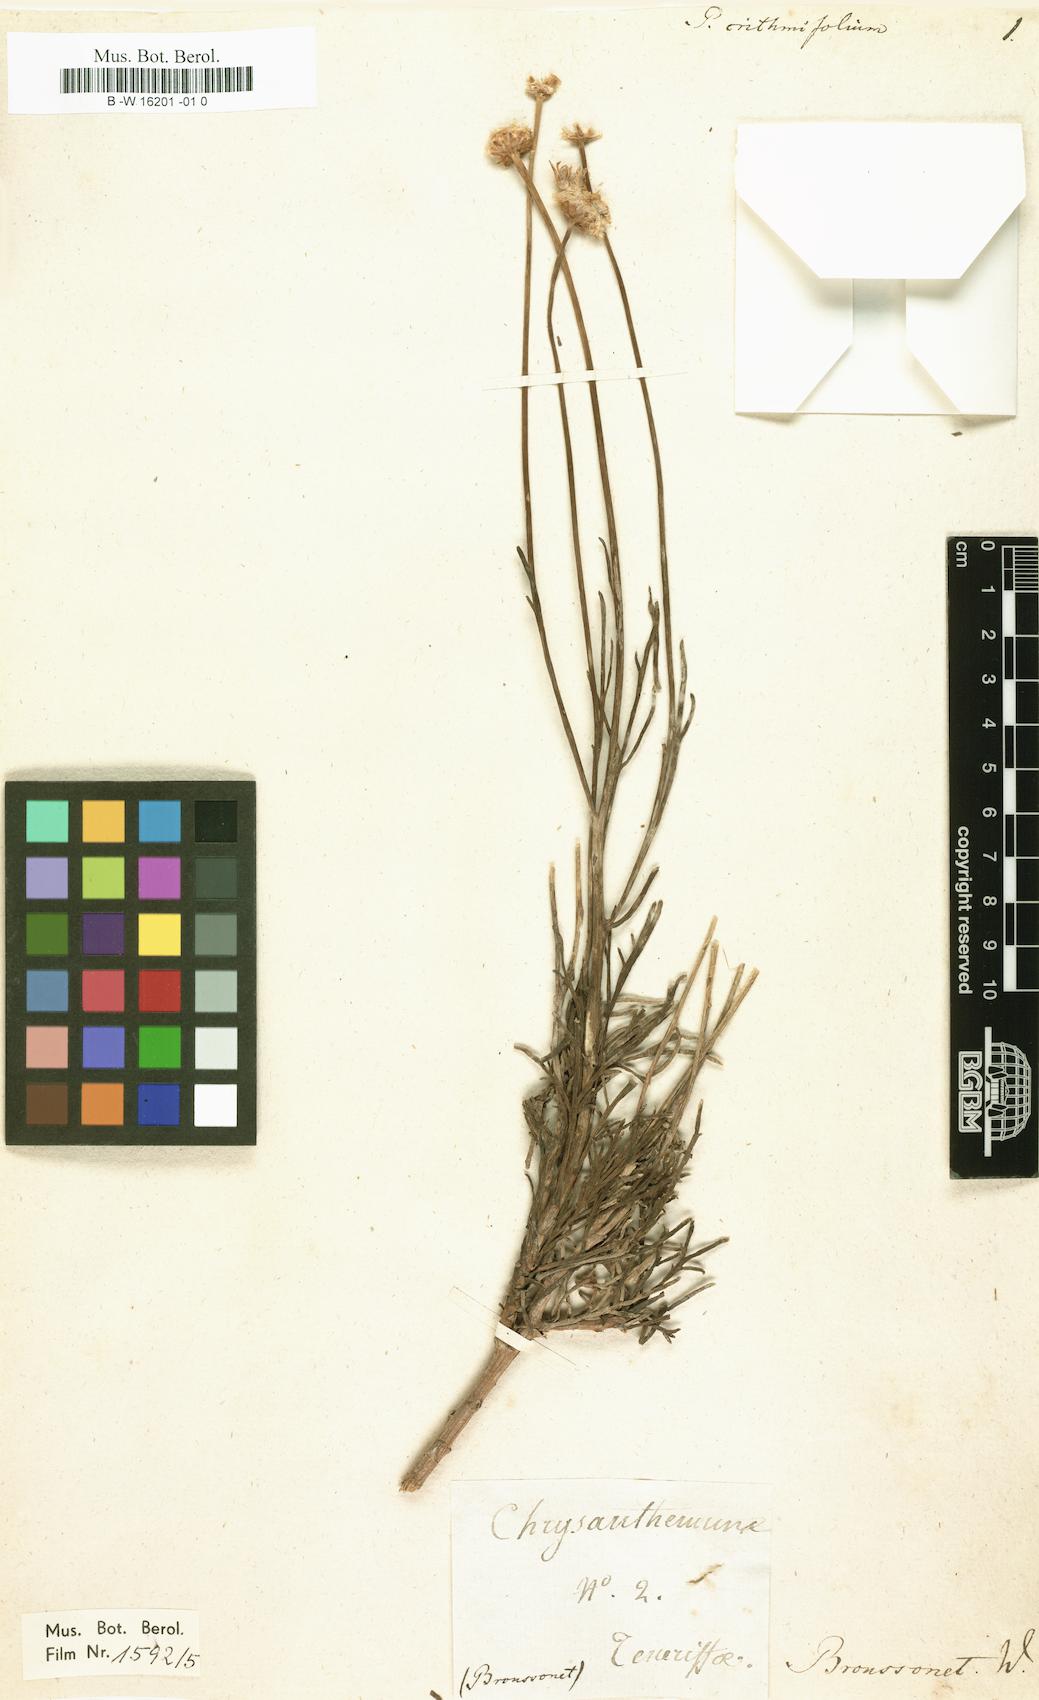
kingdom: Plantae
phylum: Tracheophyta
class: Magnoliopsida
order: Asterales
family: Asteraceae
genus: Argyranthemum
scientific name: Argyranthemum tenerifae
